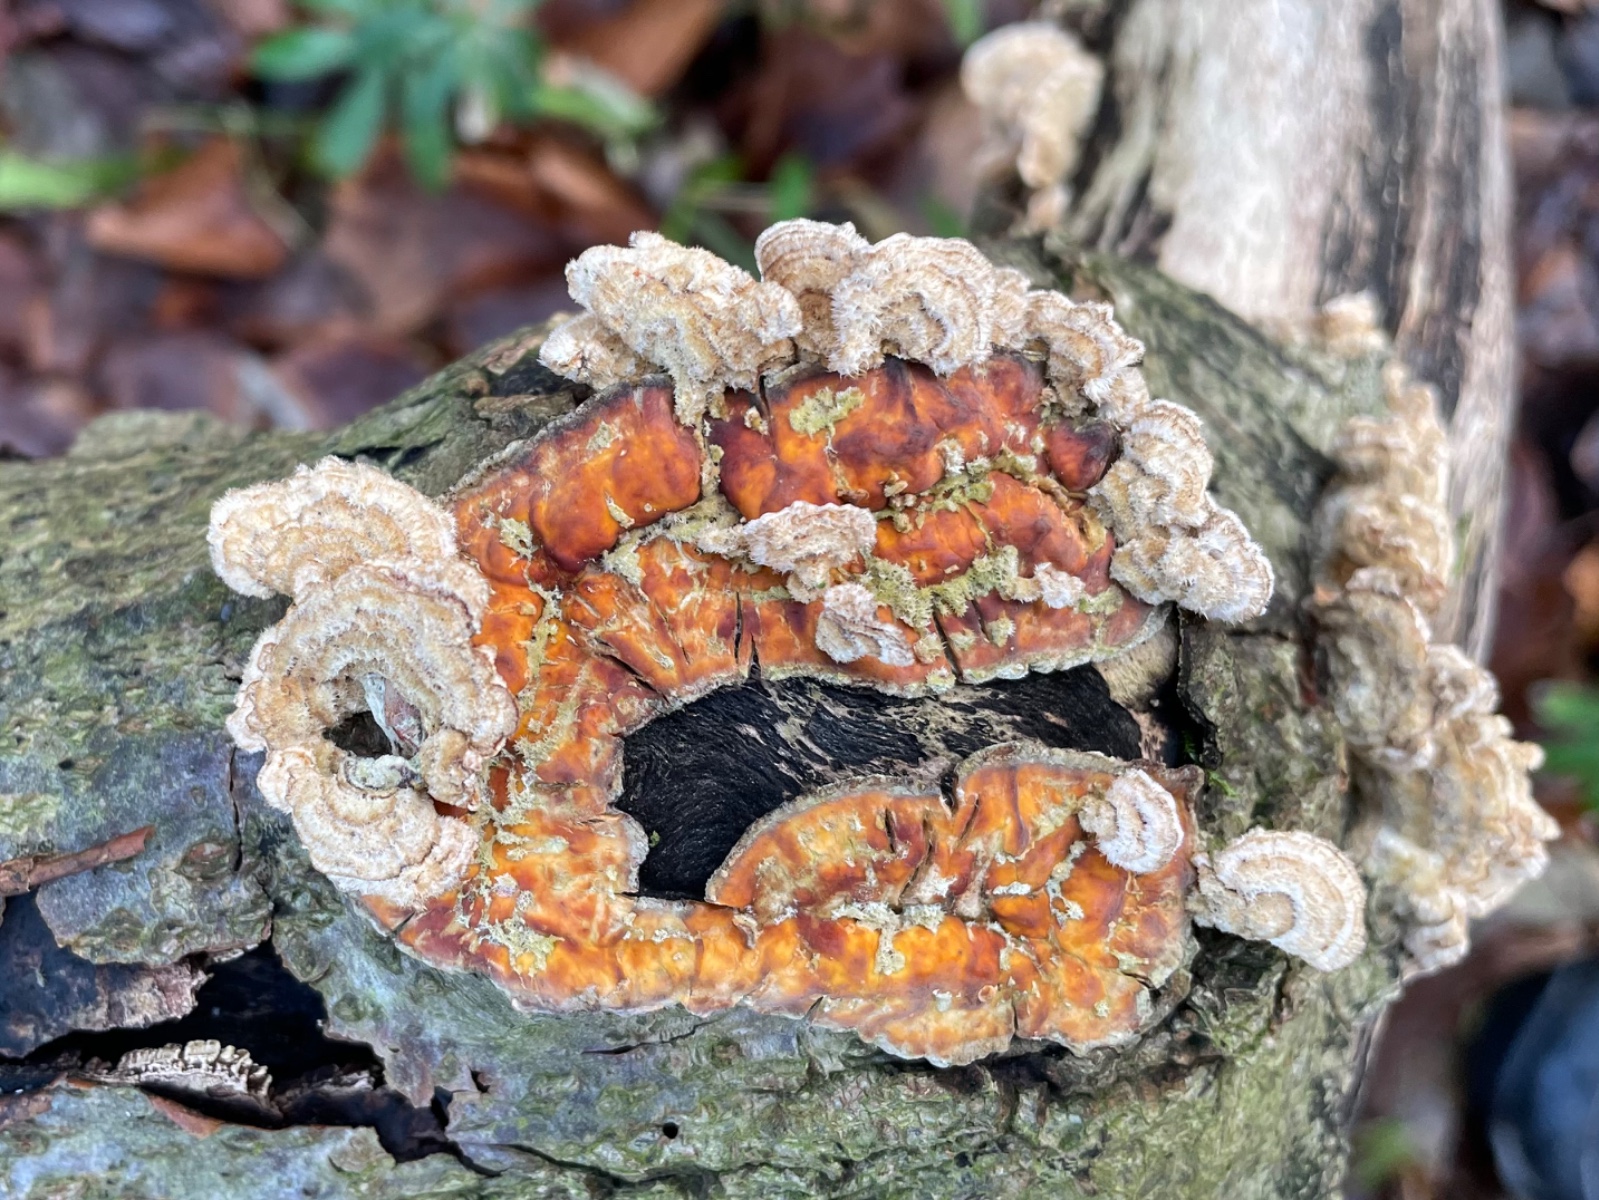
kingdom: Fungi
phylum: Basidiomycota
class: Agaricomycetes
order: Russulales
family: Stereaceae
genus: Stereum
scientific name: Stereum hirsutum
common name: håret lædersvamp
